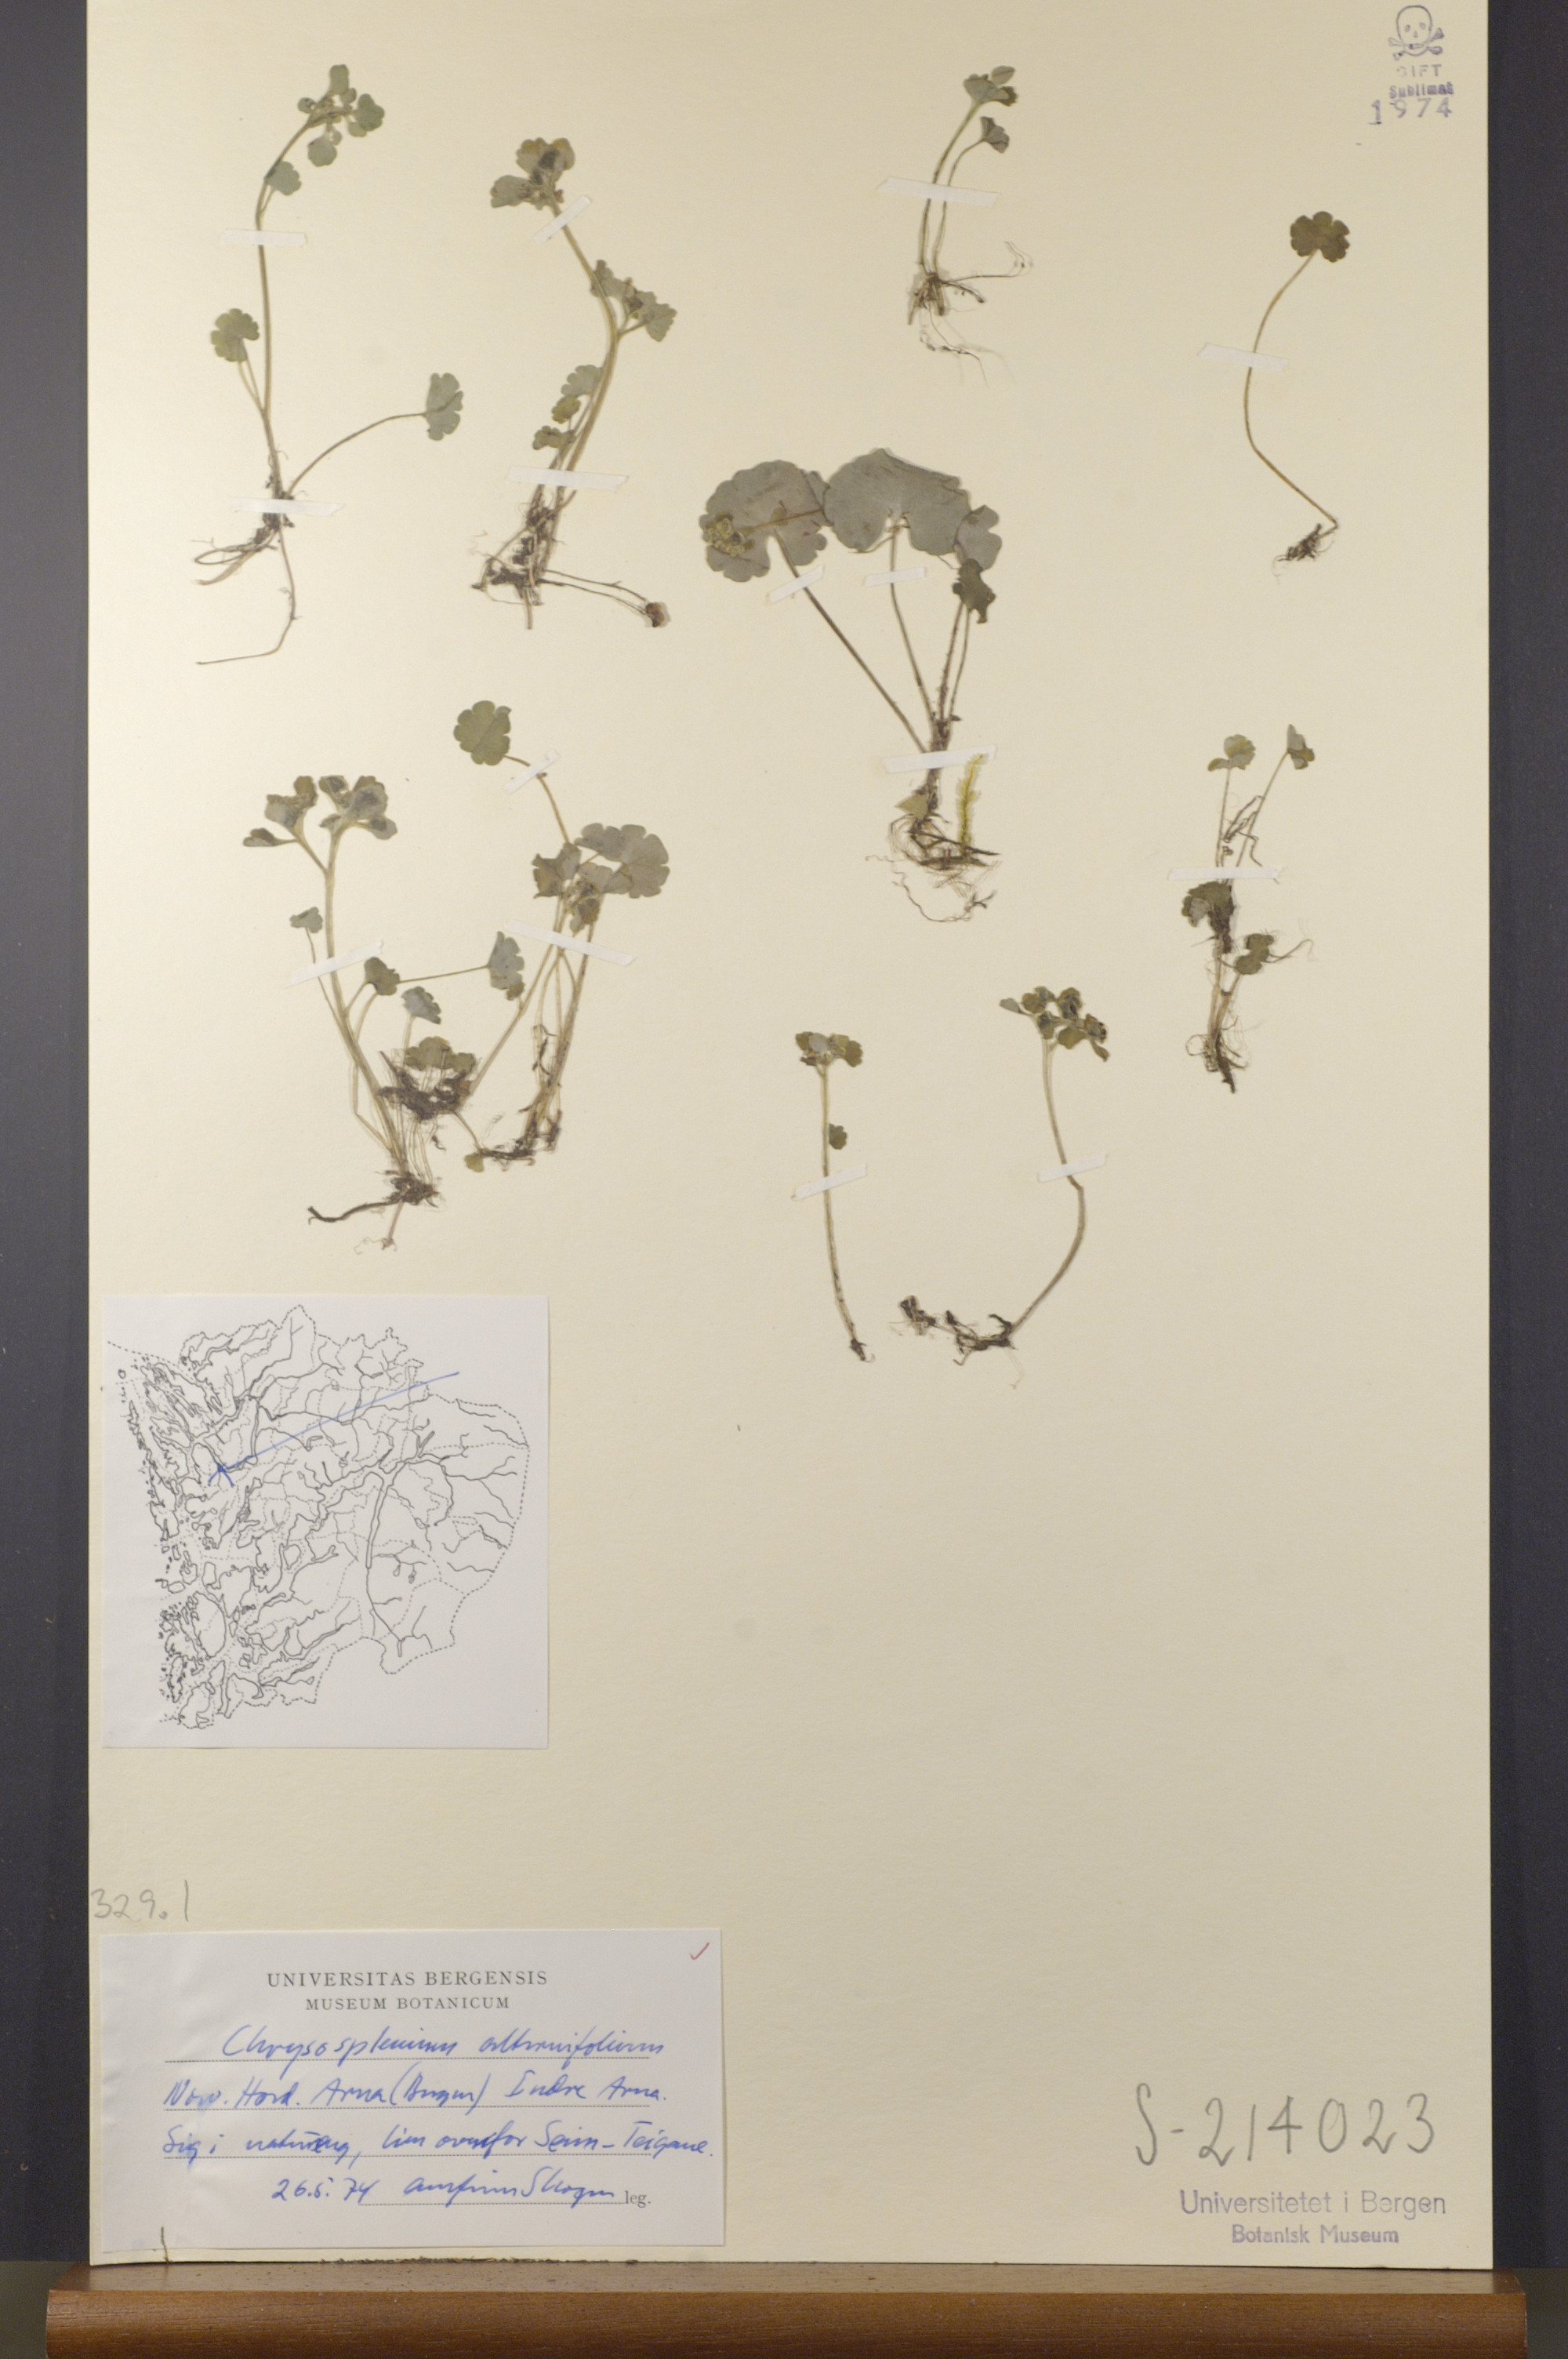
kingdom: Plantae
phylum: Tracheophyta
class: Magnoliopsida
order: Saxifragales
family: Saxifragaceae
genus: Chrysosplenium
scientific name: Chrysosplenium alternifolium
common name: Alternate-leaved golden-saxifrage
